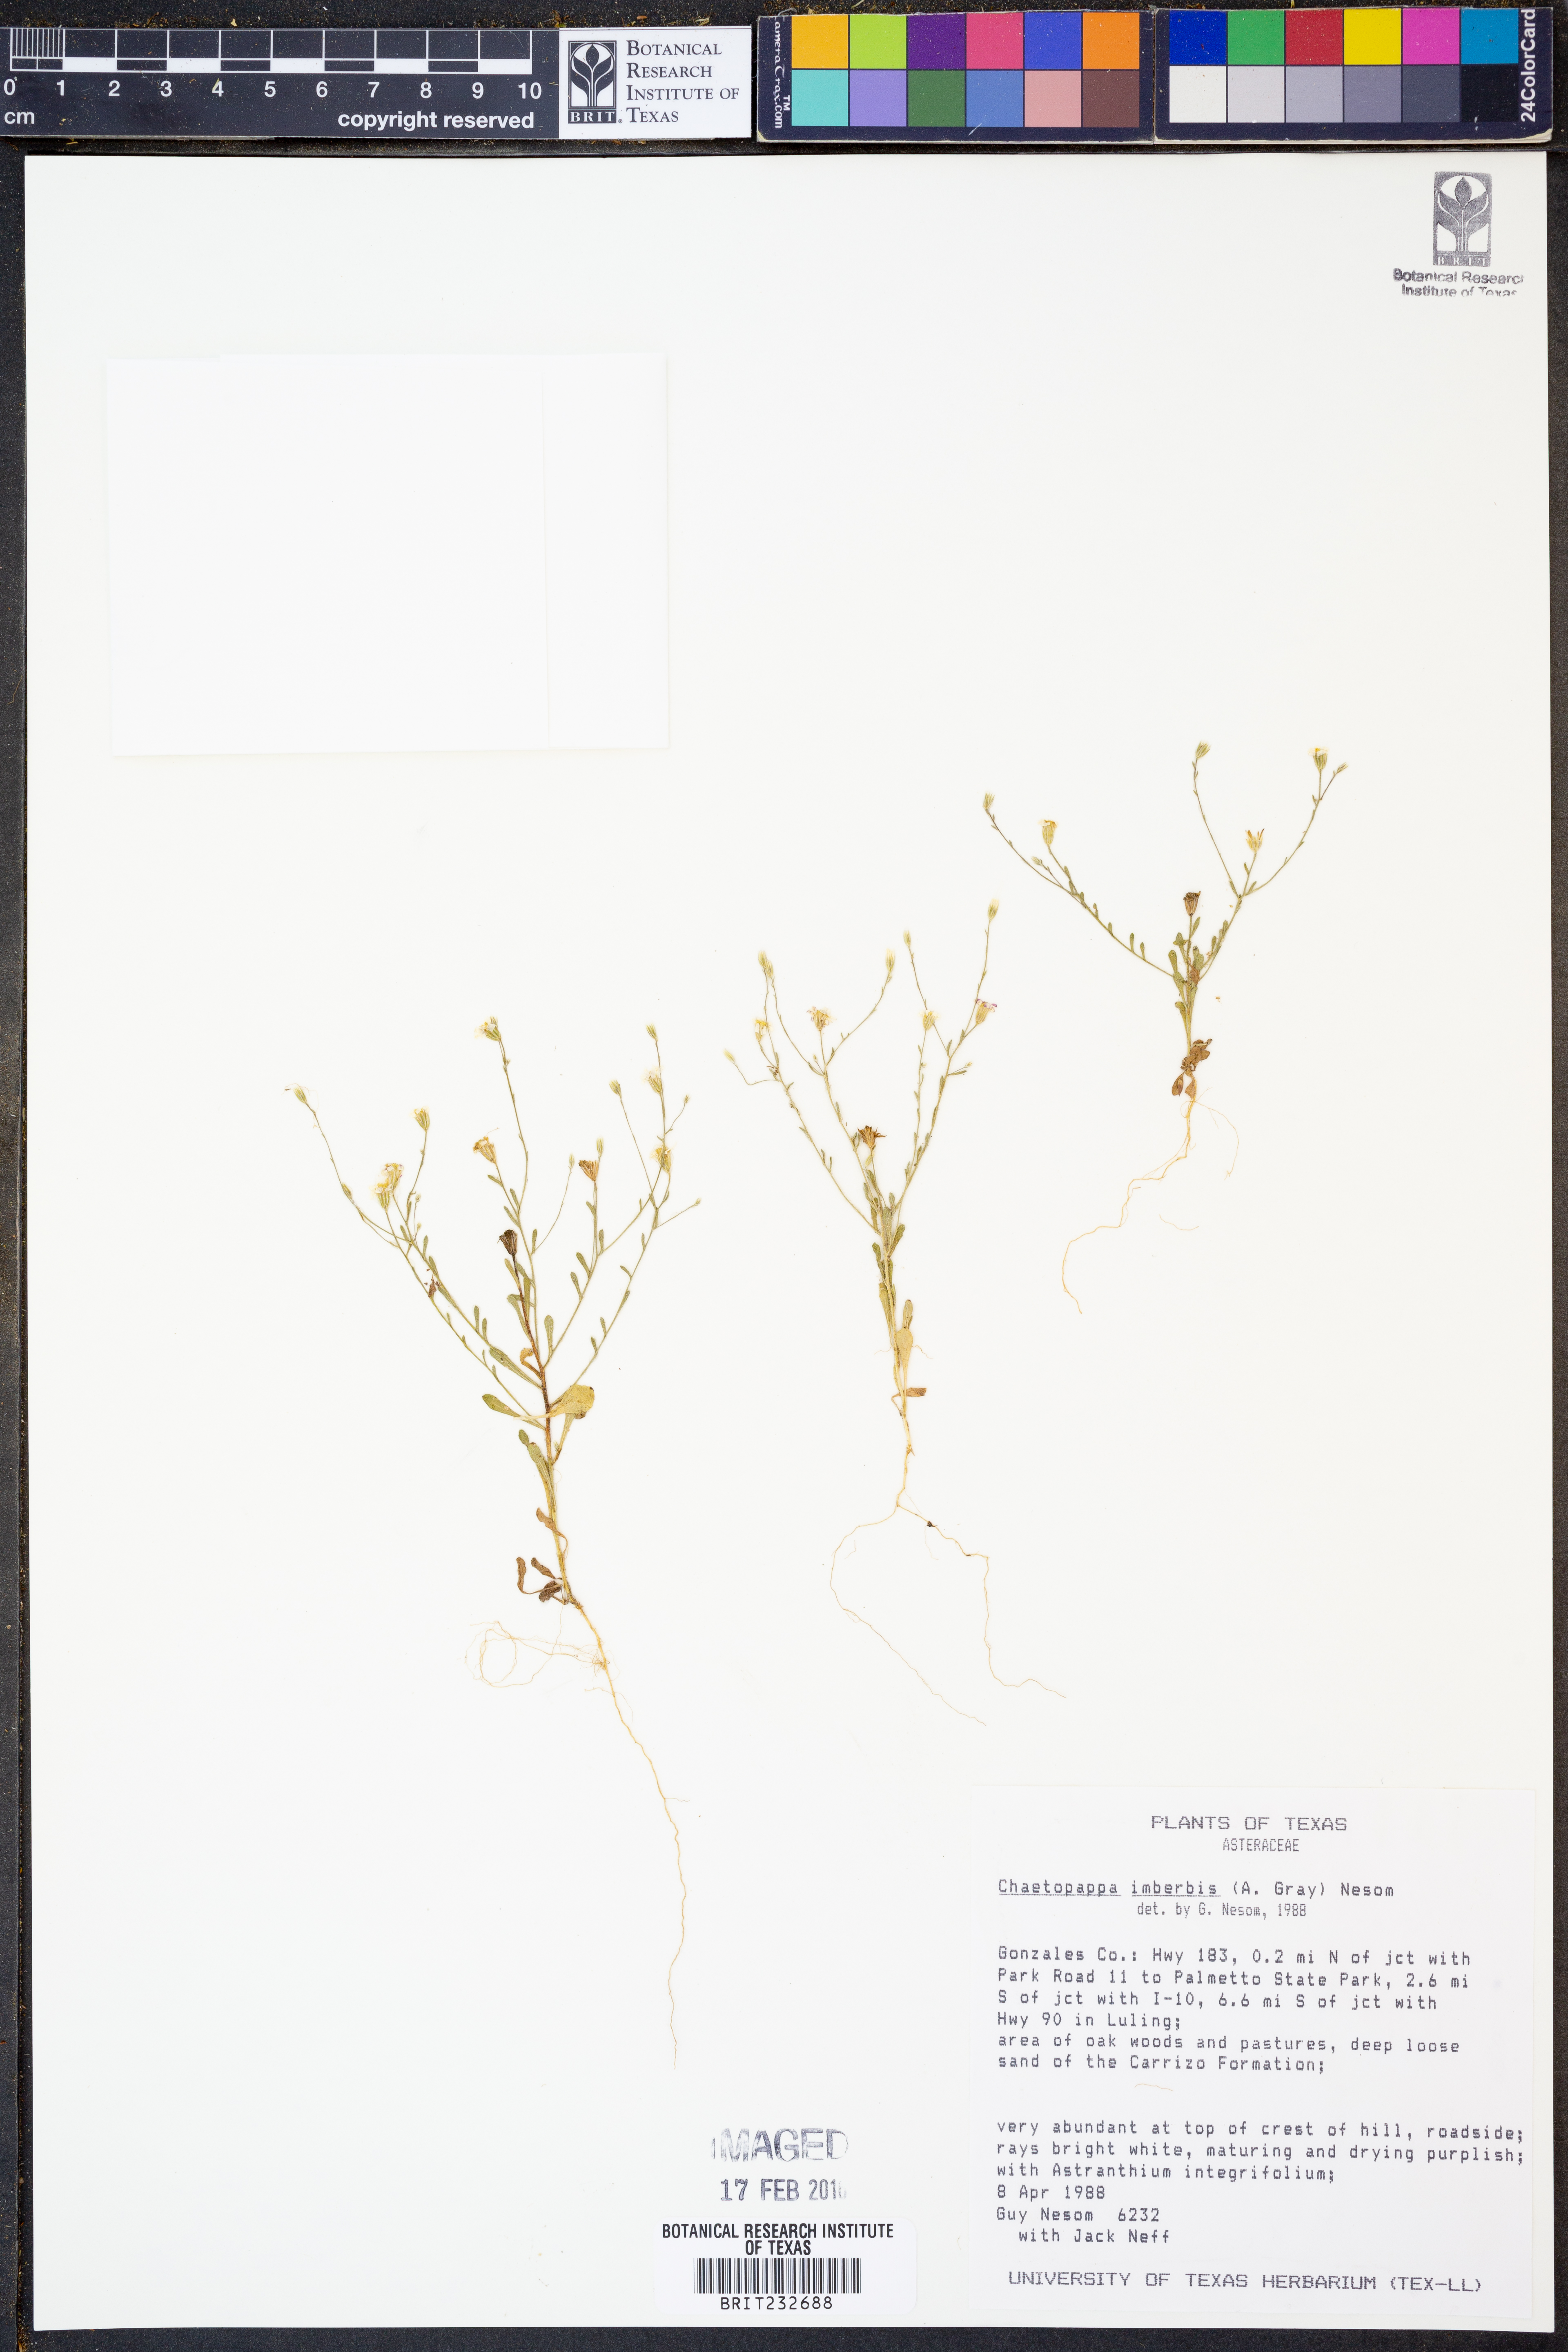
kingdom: Plantae
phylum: Tracheophyta
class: Magnoliopsida
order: Asterales
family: Asteraceae
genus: Chaetopappa
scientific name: Chaetopappa imberbis
